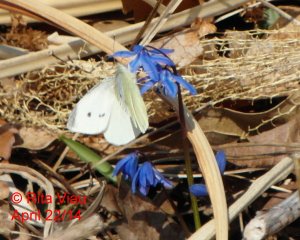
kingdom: Animalia
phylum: Arthropoda
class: Insecta
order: Lepidoptera
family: Pieridae
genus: Pieris
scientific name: Pieris rapae
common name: Cabbage White
